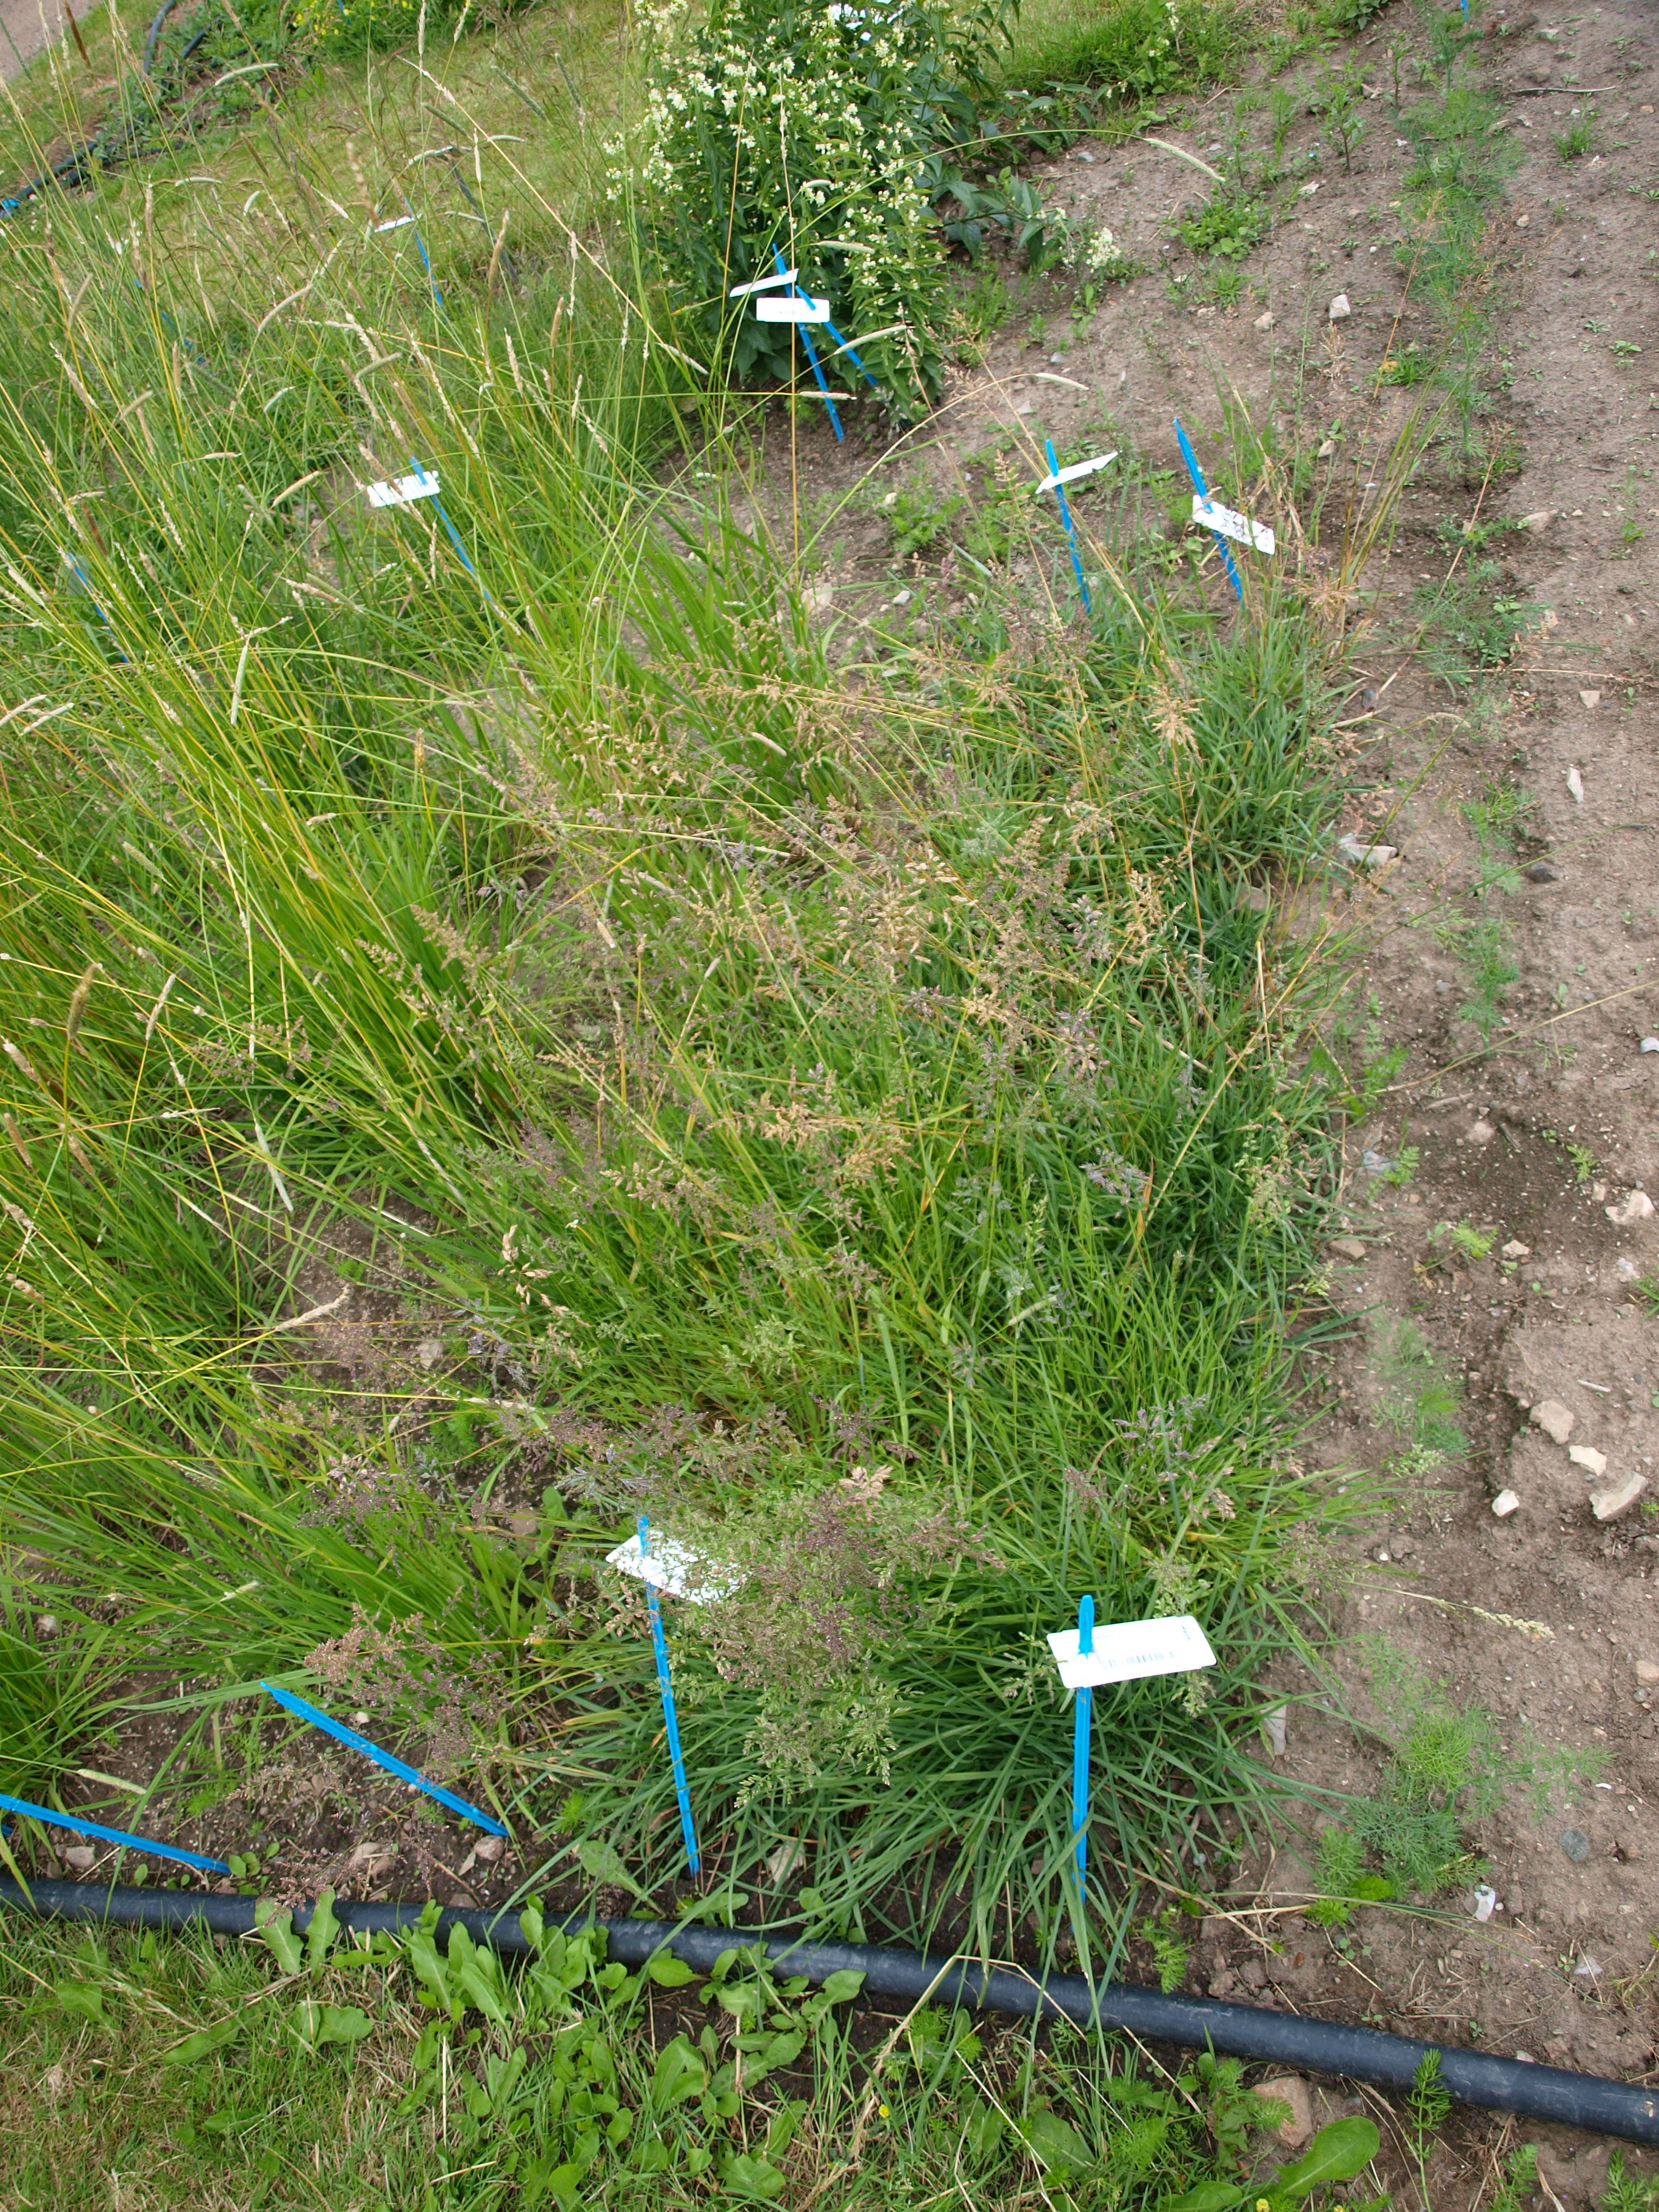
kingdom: Plantae
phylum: Tracheophyta
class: Liliopsida
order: Poales
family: Poaceae
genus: Poa
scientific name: Poa pratensis
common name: Kentucky bluegrass
